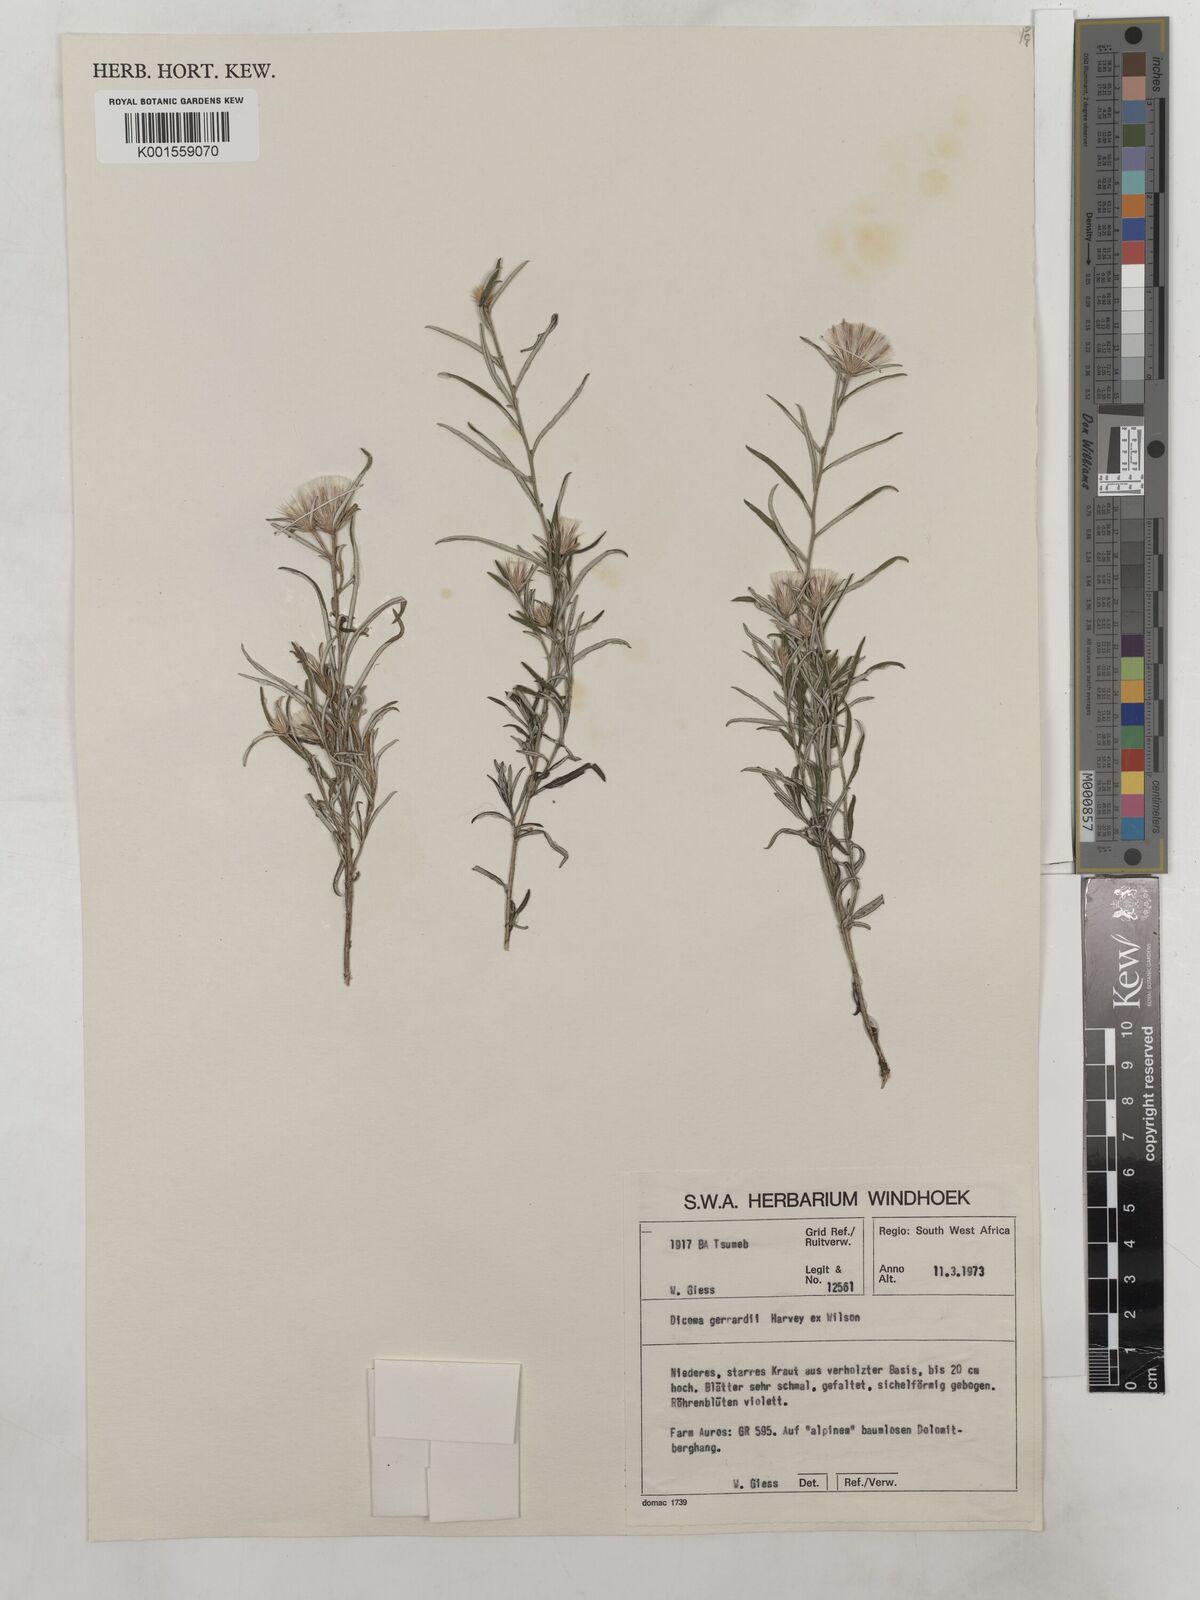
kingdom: Plantae
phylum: Tracheophyta
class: Magnoliopsida
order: Asterales
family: Asteraceae
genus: Dicoma
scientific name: Dicoma anomala
